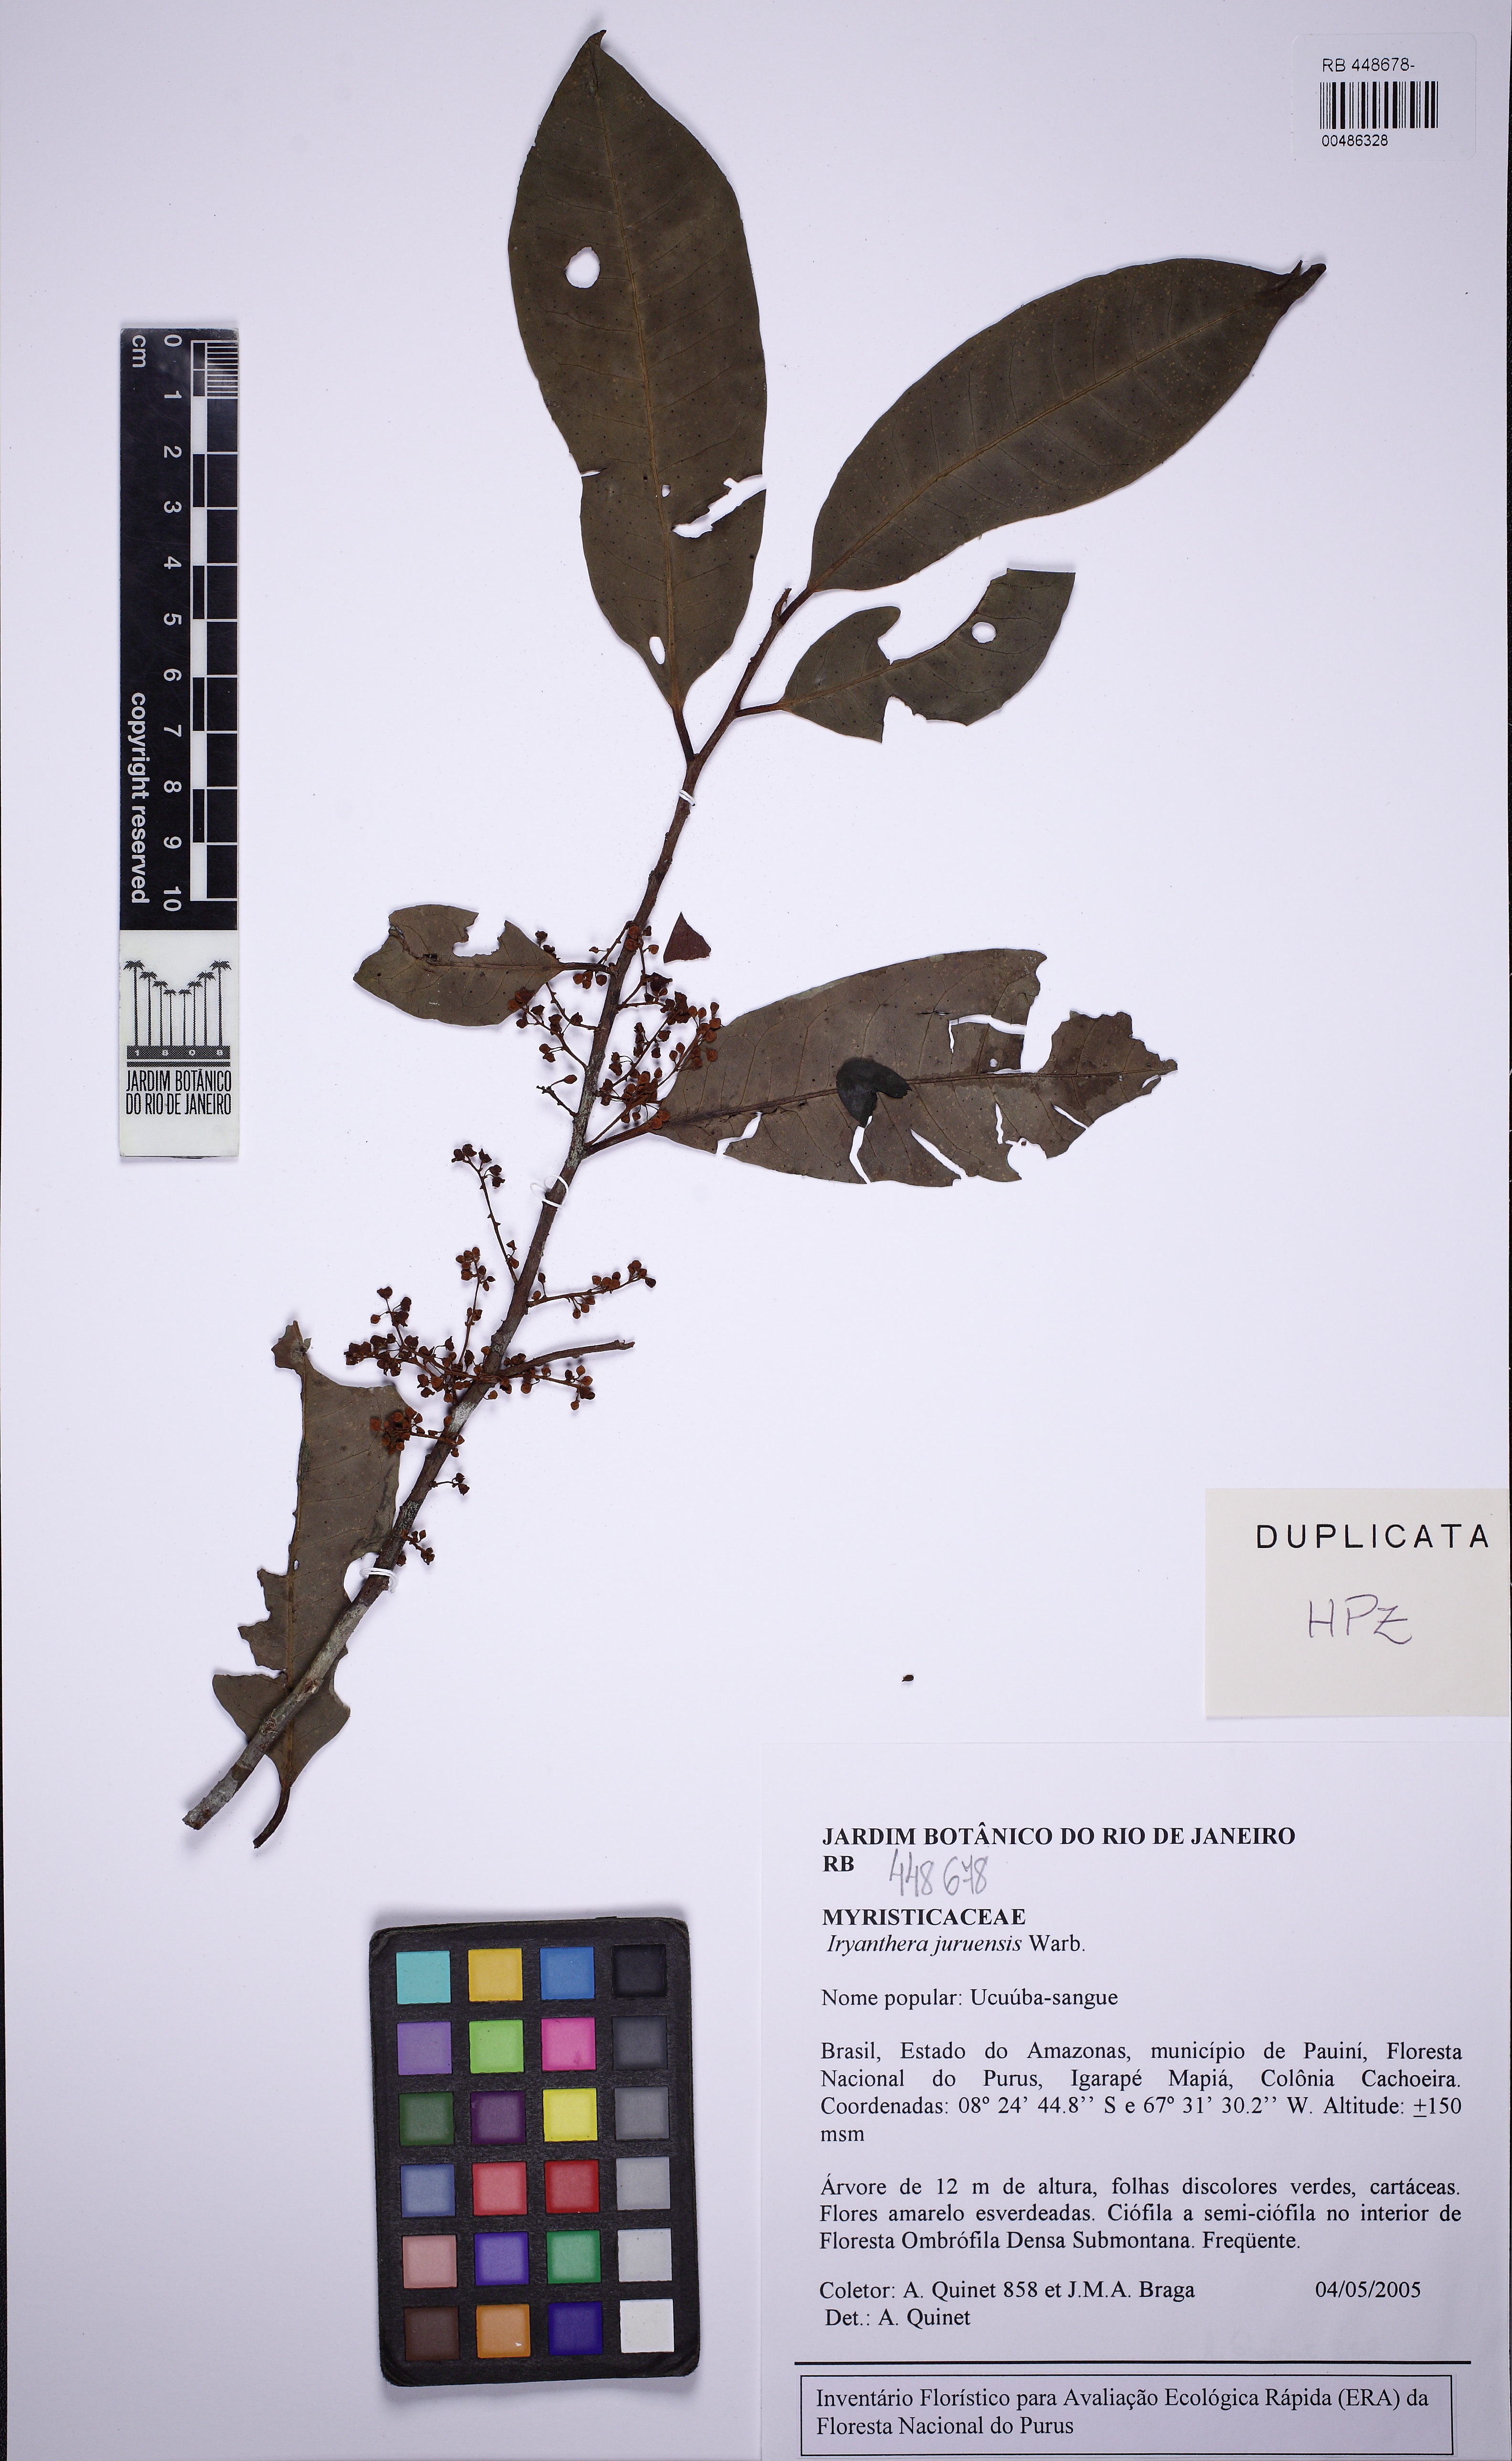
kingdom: Plantae
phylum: Tracheophyta
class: Magnoliopsida
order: Magnoliales
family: Myristicaceae
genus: Iryanthera
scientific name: Iryanthera juruensis
